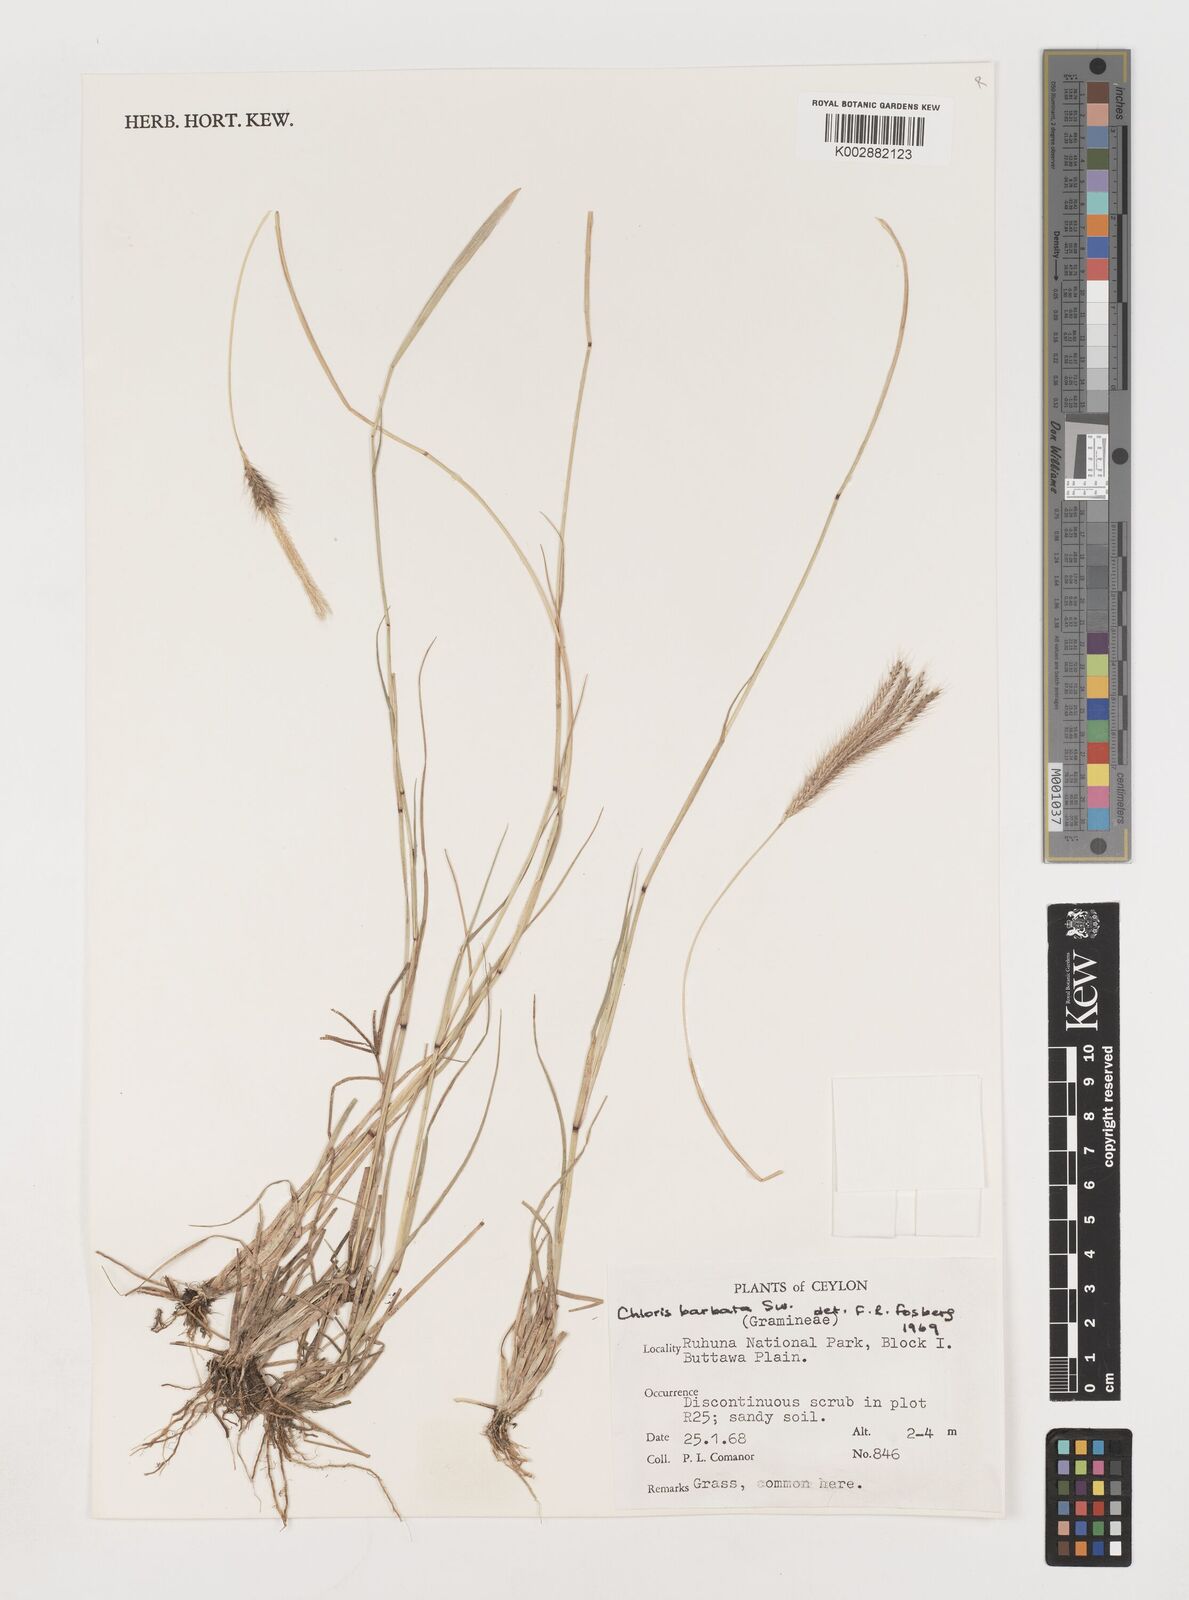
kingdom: Plantae
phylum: Tracheophyta
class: Liliopsida
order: Poales
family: Poaceae
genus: Chloris
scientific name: Chloris barbata
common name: Swollen fingergrass
